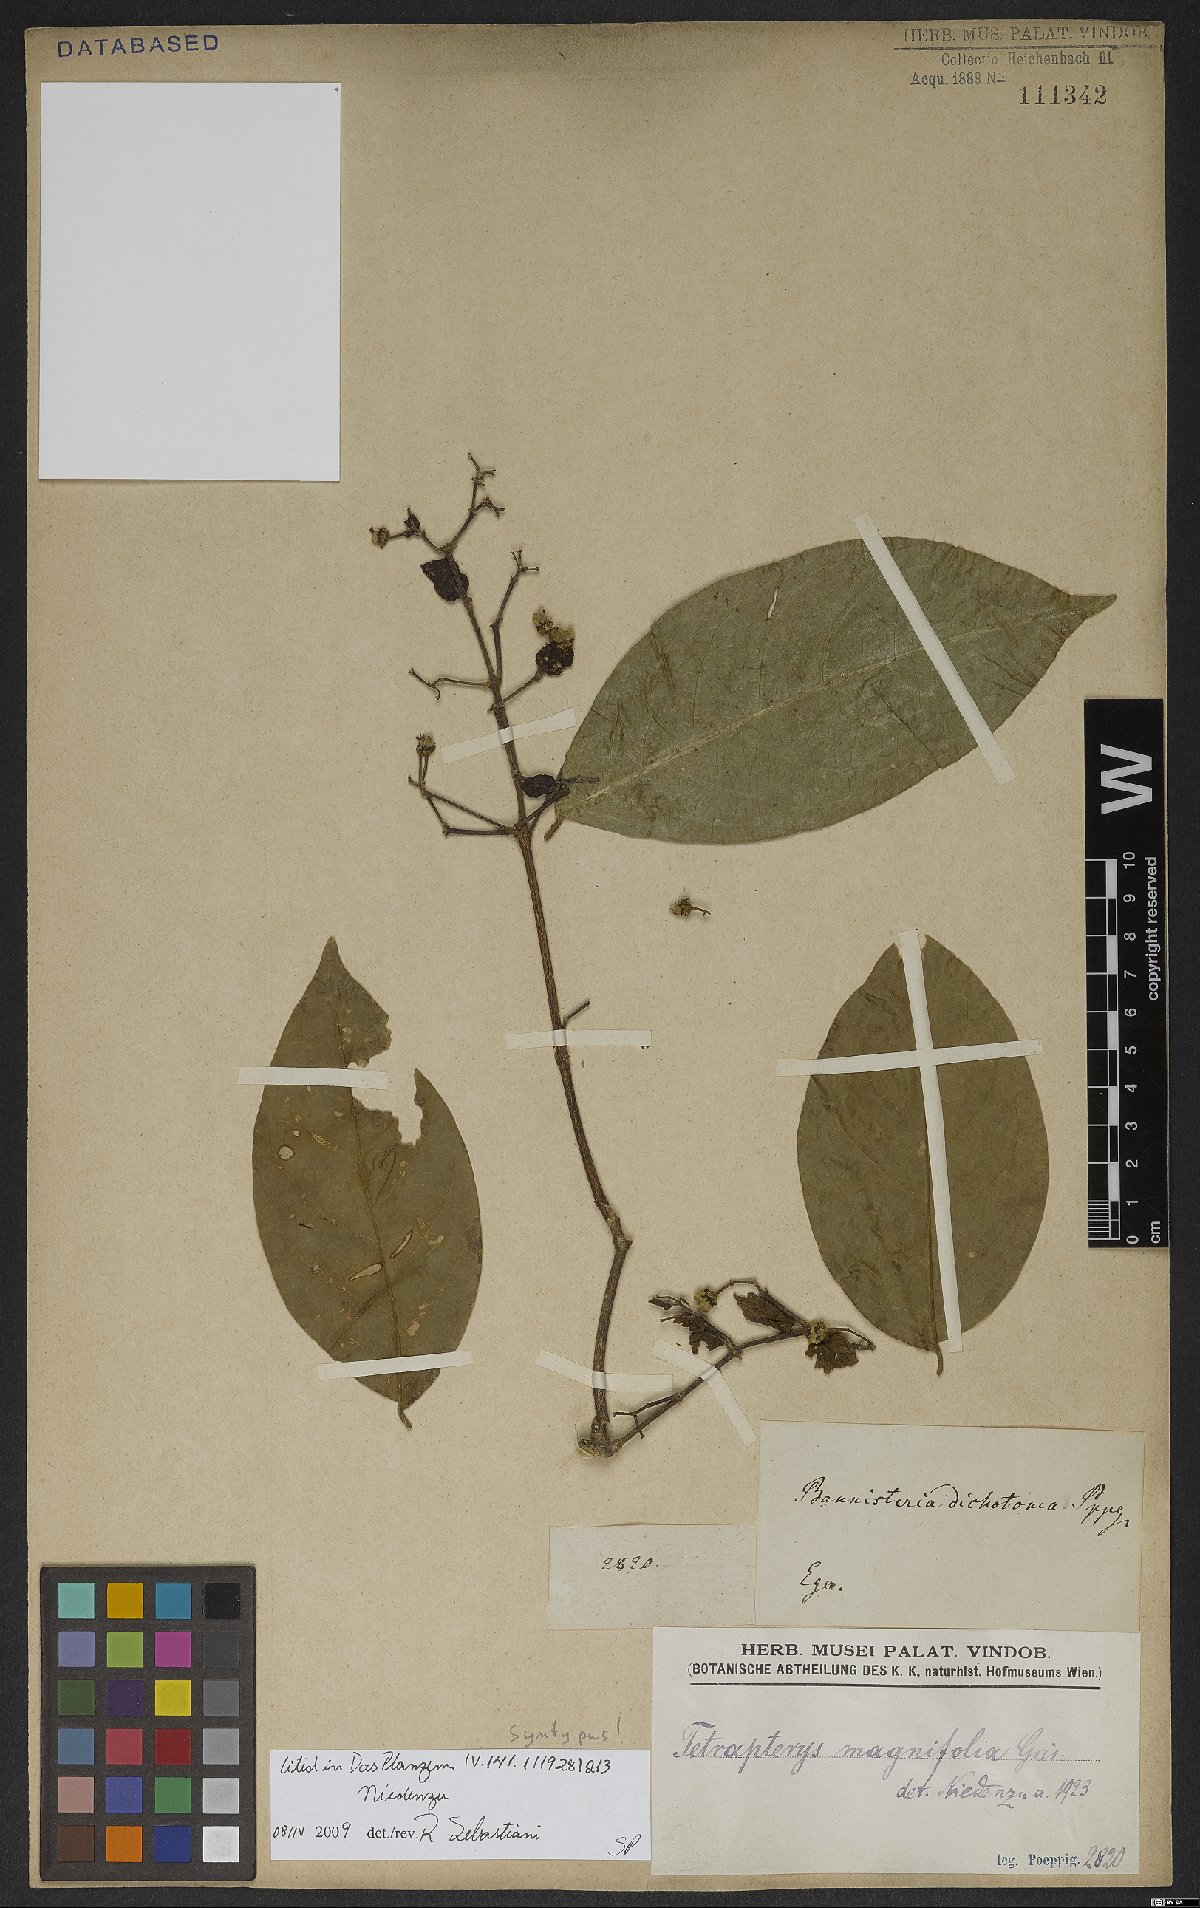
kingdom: Plantae
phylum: Tracheophyta
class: Magnoliopsida
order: Malpighiales
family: Malpighiaceae
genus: Tetrapterys
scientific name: Tetrapterys magnifolia
